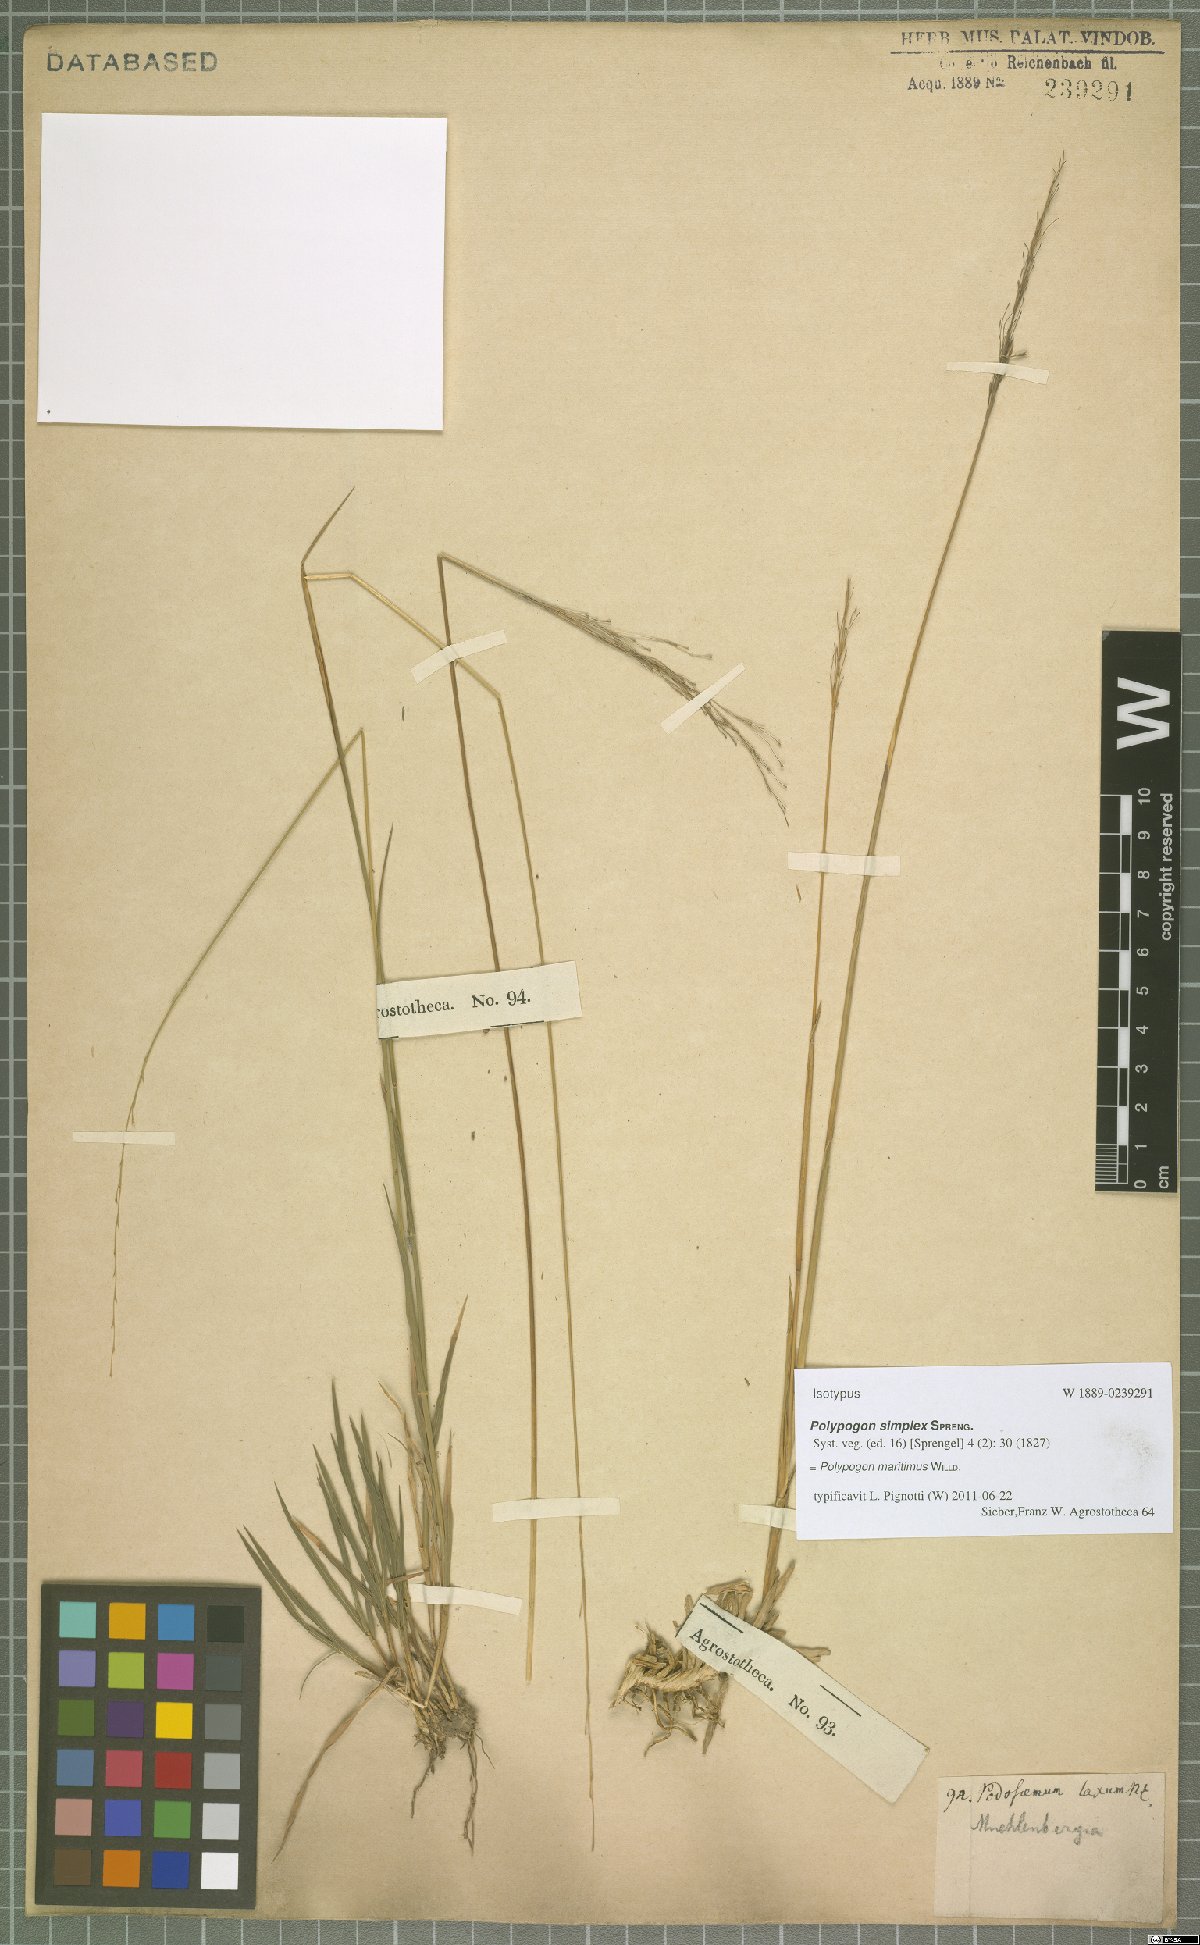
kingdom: Plantae
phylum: Tracheophyta
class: Liliopsida
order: Poales
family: Poaceae
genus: Polypogon
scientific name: Polypogon maritimus
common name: Mediterranean rabbitsfoot grass
